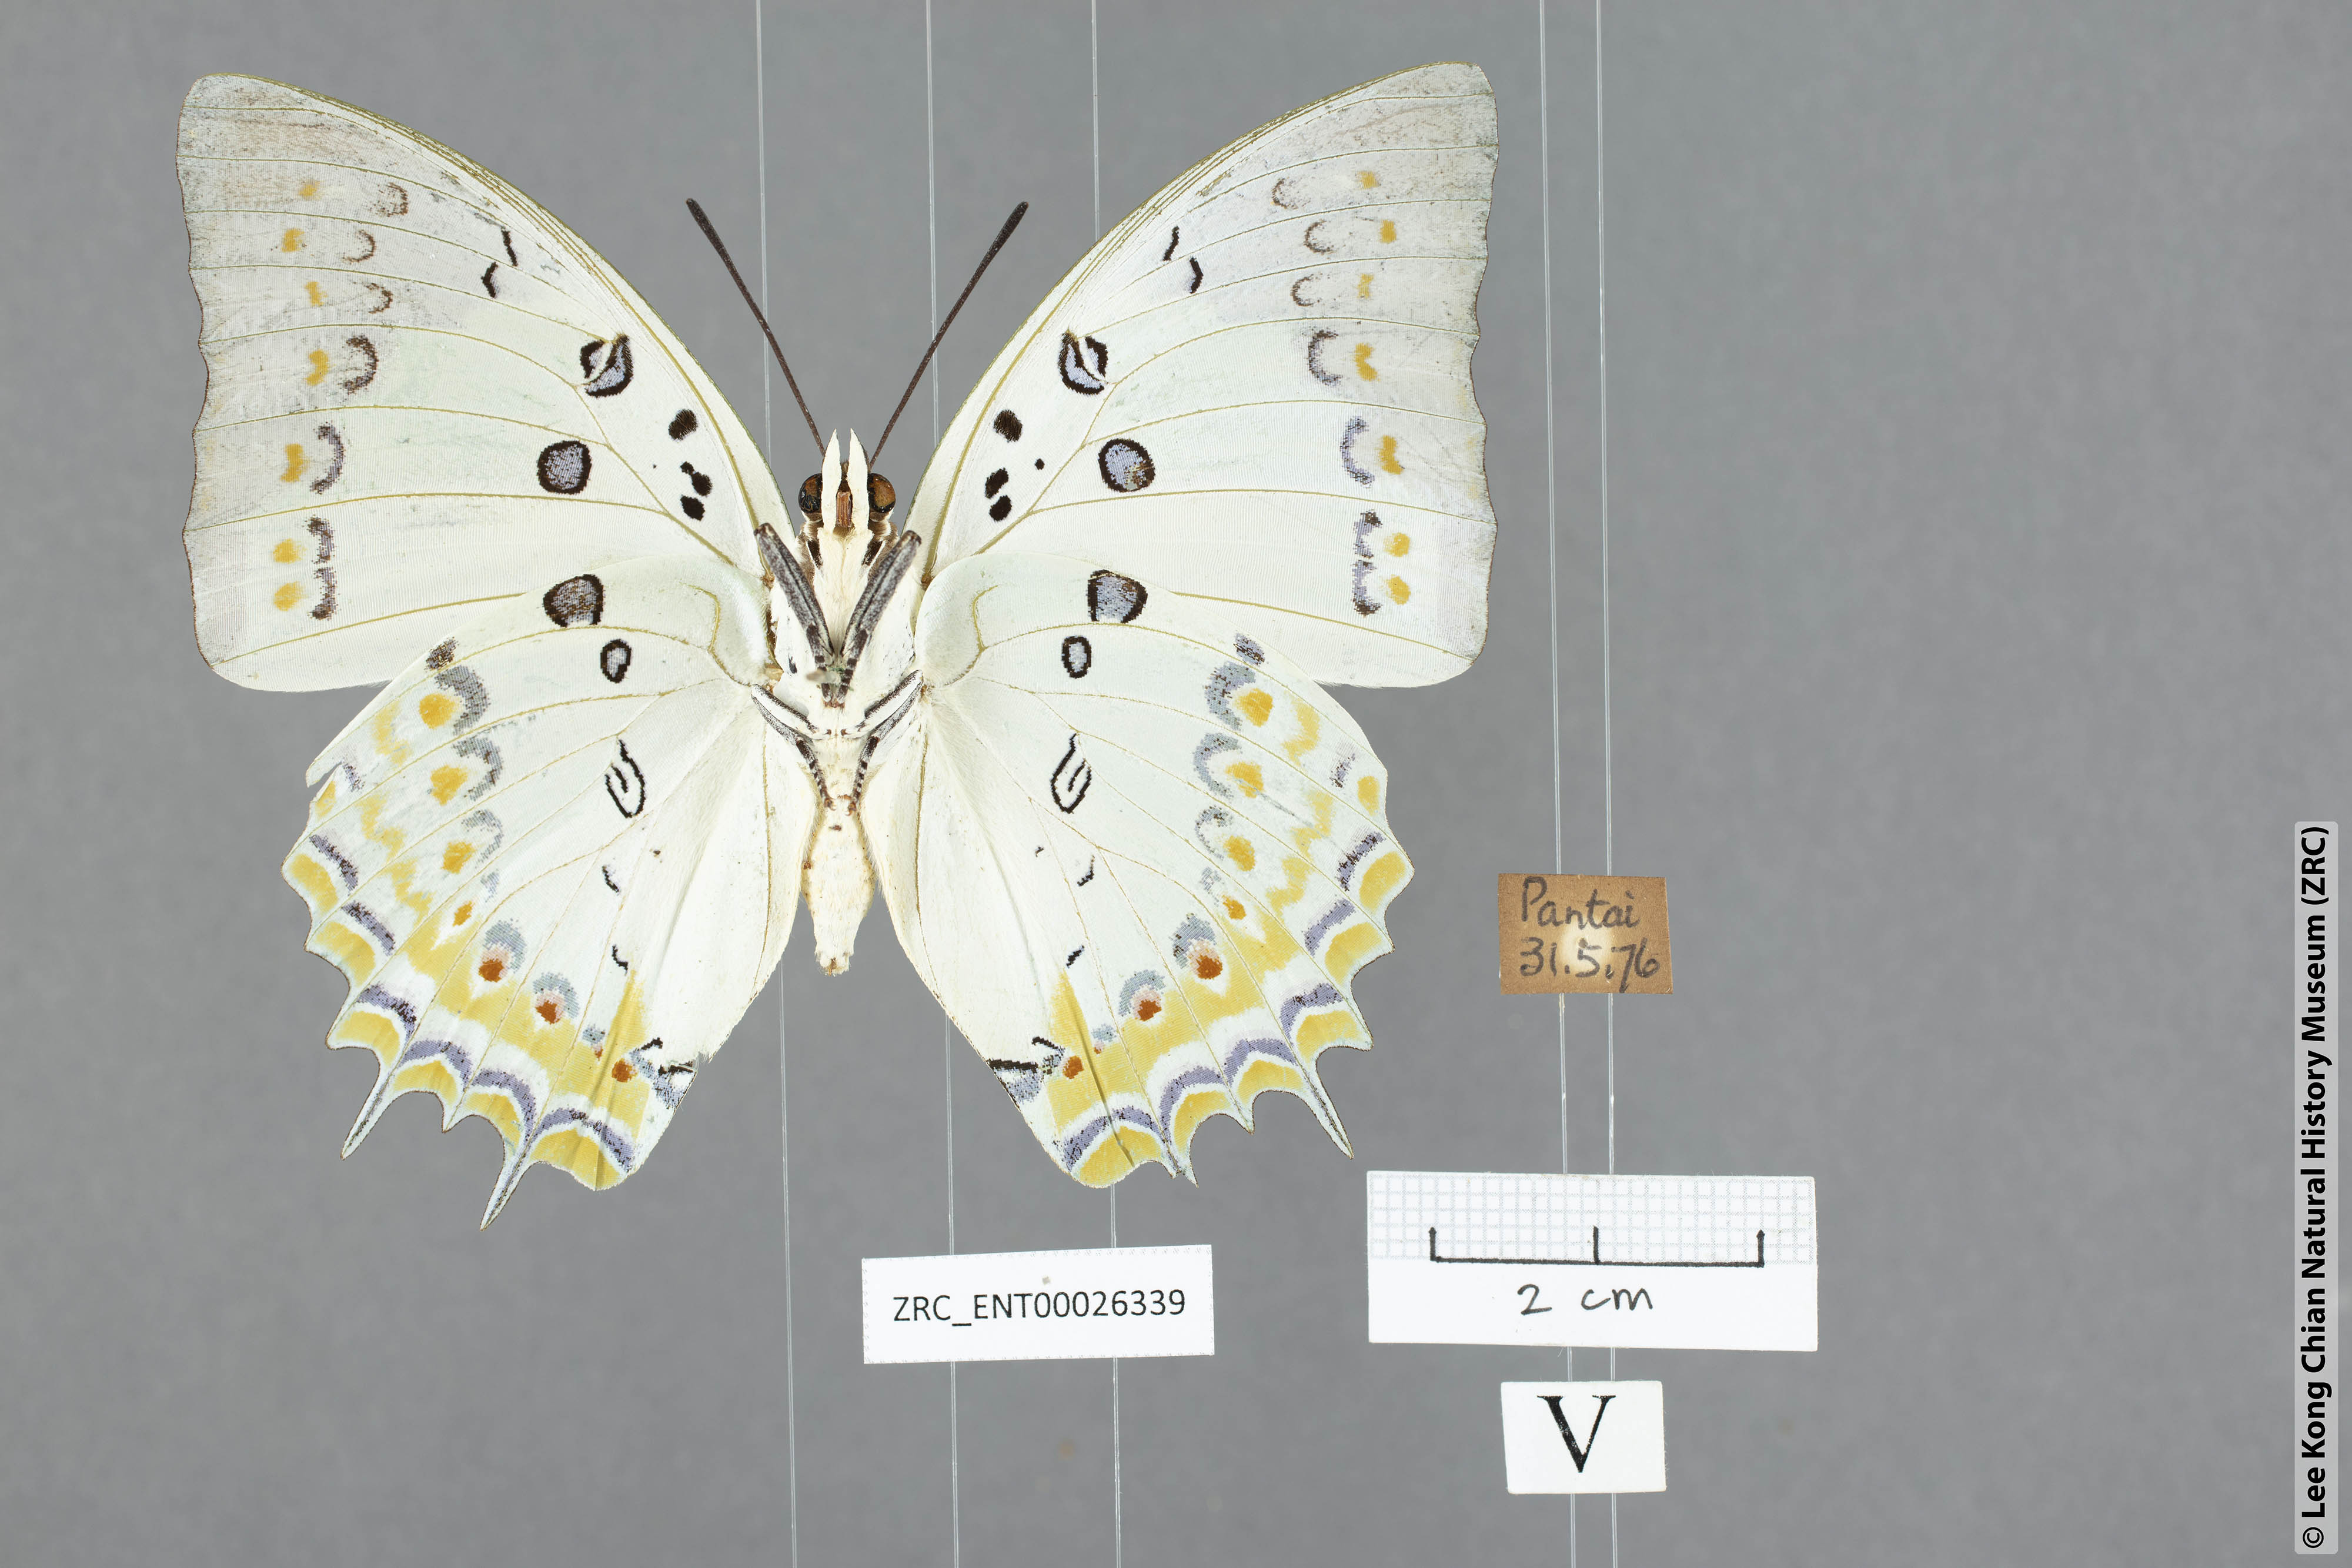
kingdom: Animalia
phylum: Arthropoda
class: Insecta
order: Lepidoptera
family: Nymphalidae
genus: Polyura
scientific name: Polyura delphis
